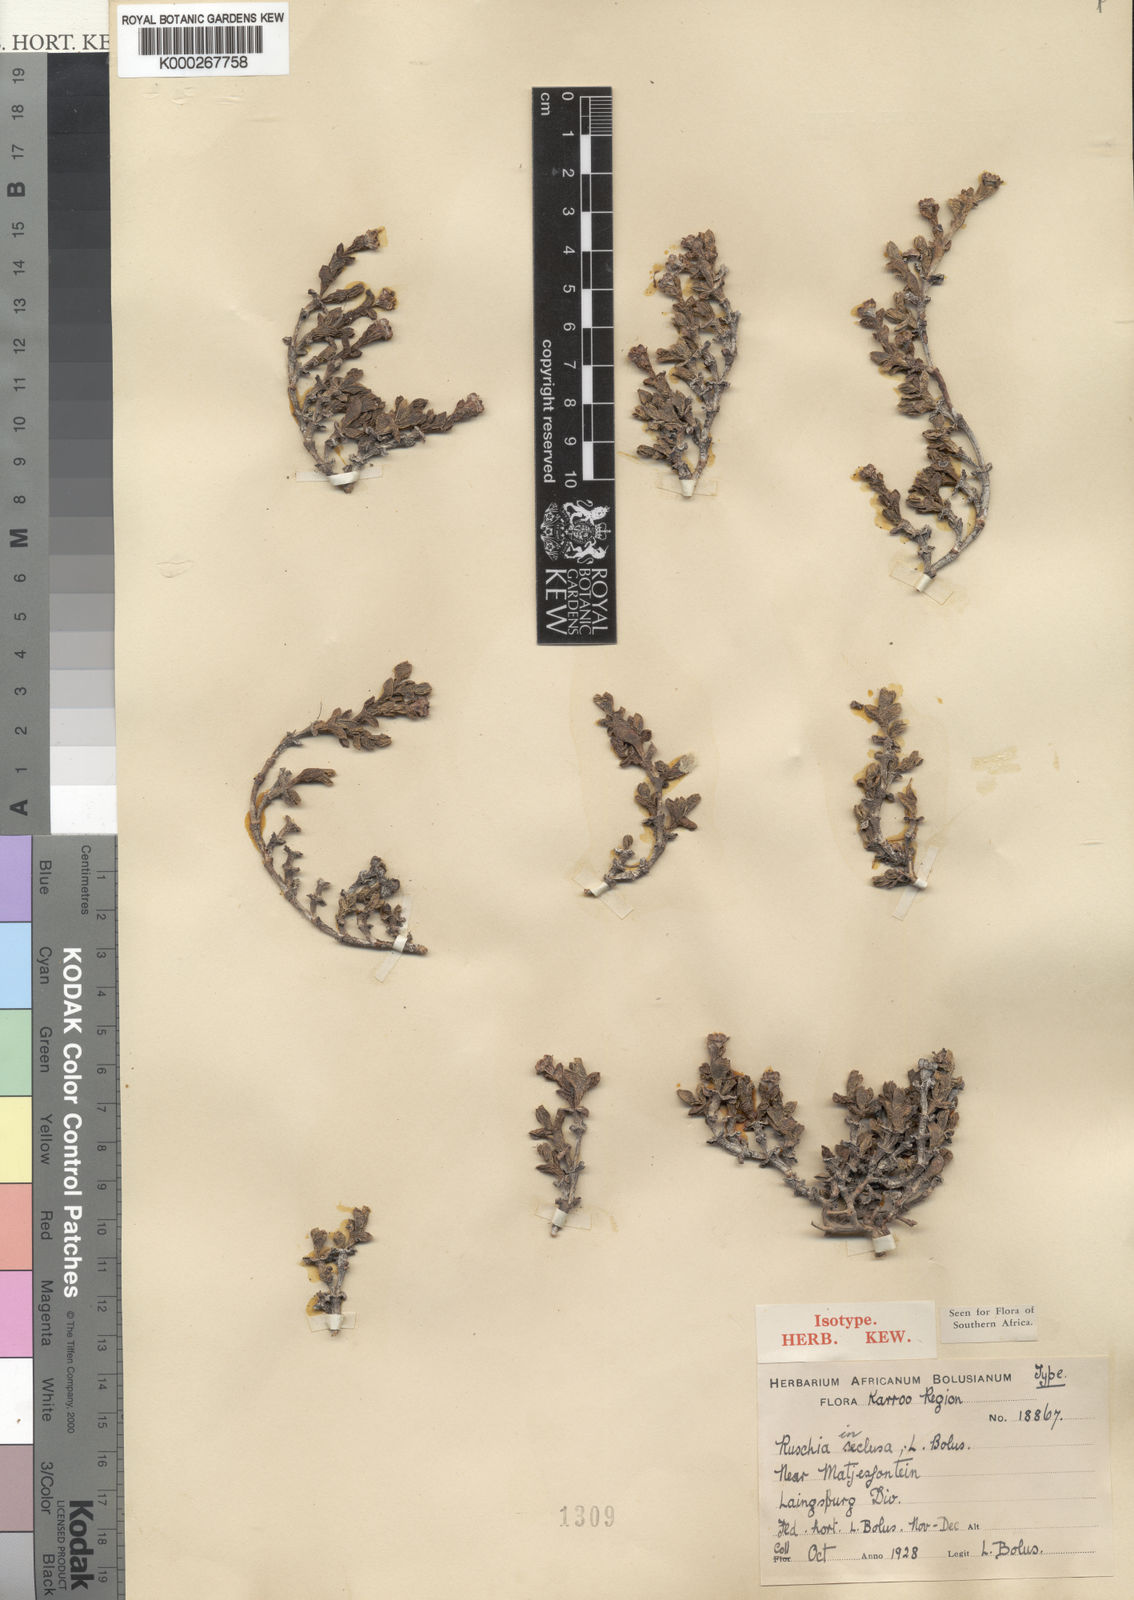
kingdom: Plantae
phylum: Tracheophyta
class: Magnoliopsida
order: Caryophyllales
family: Aizoaceae
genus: Ruschia
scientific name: Ruschia inclusa
